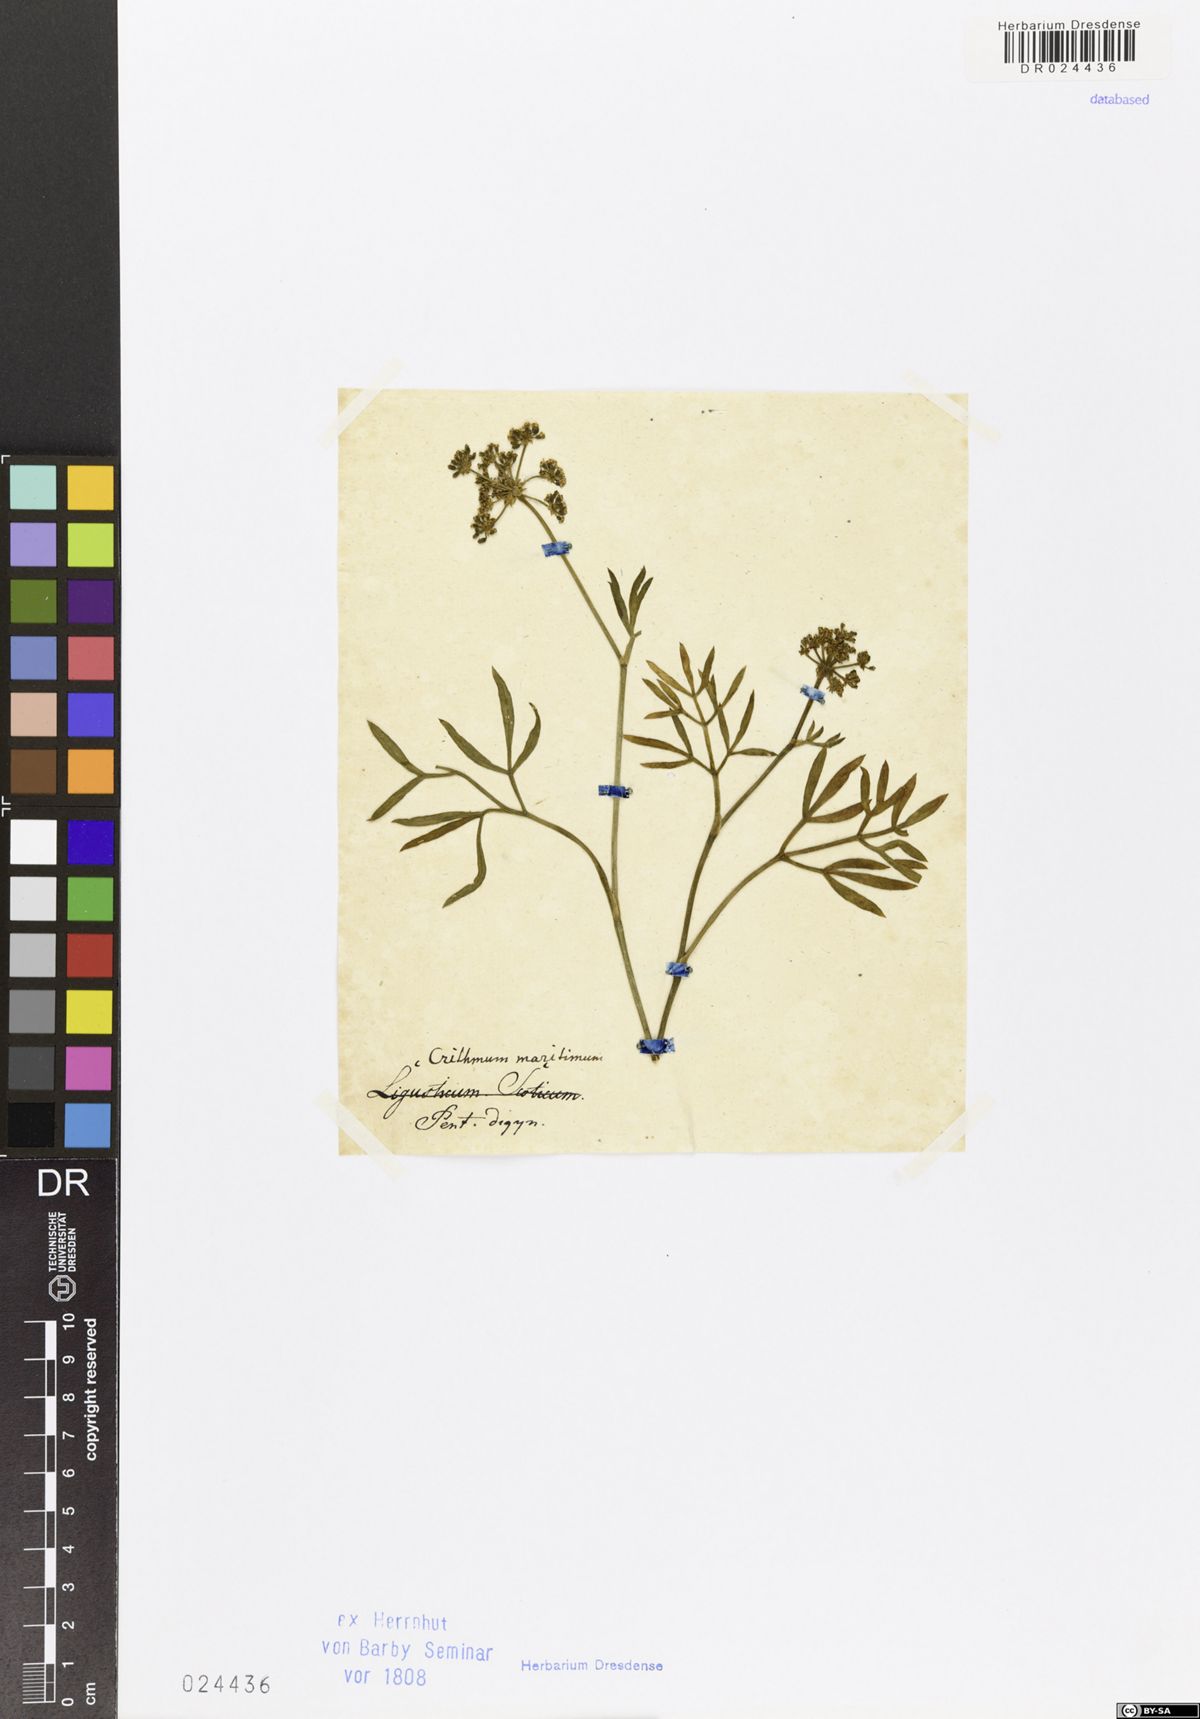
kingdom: Plantae
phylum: Tracheophyta
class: Magnoliopsida
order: Apiales
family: Apiaceae
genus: Crithmum
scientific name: Crithmum maritimum
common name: Rock samphire
